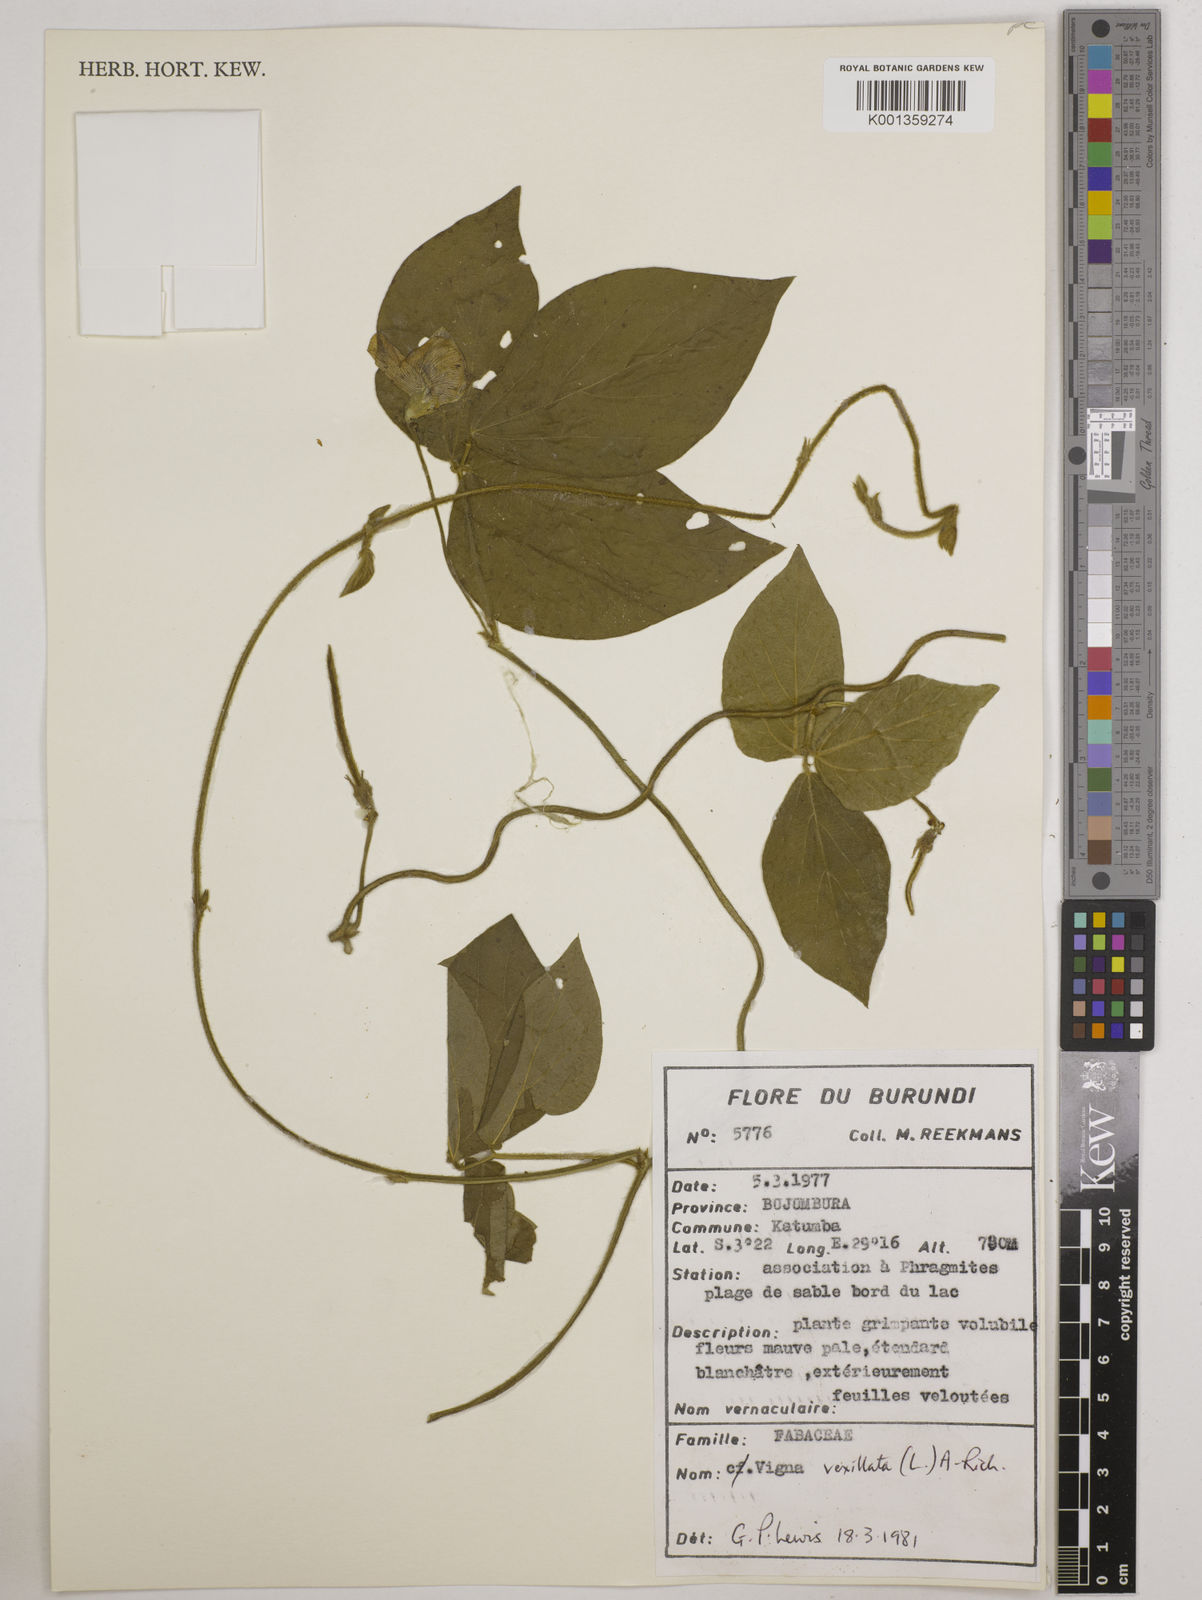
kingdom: Plantae
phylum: Tracheophyta
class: Magnoliopsida
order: Fabales
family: Fabaceae
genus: Vigna
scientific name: Vigna vexillata
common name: Zombi pea
